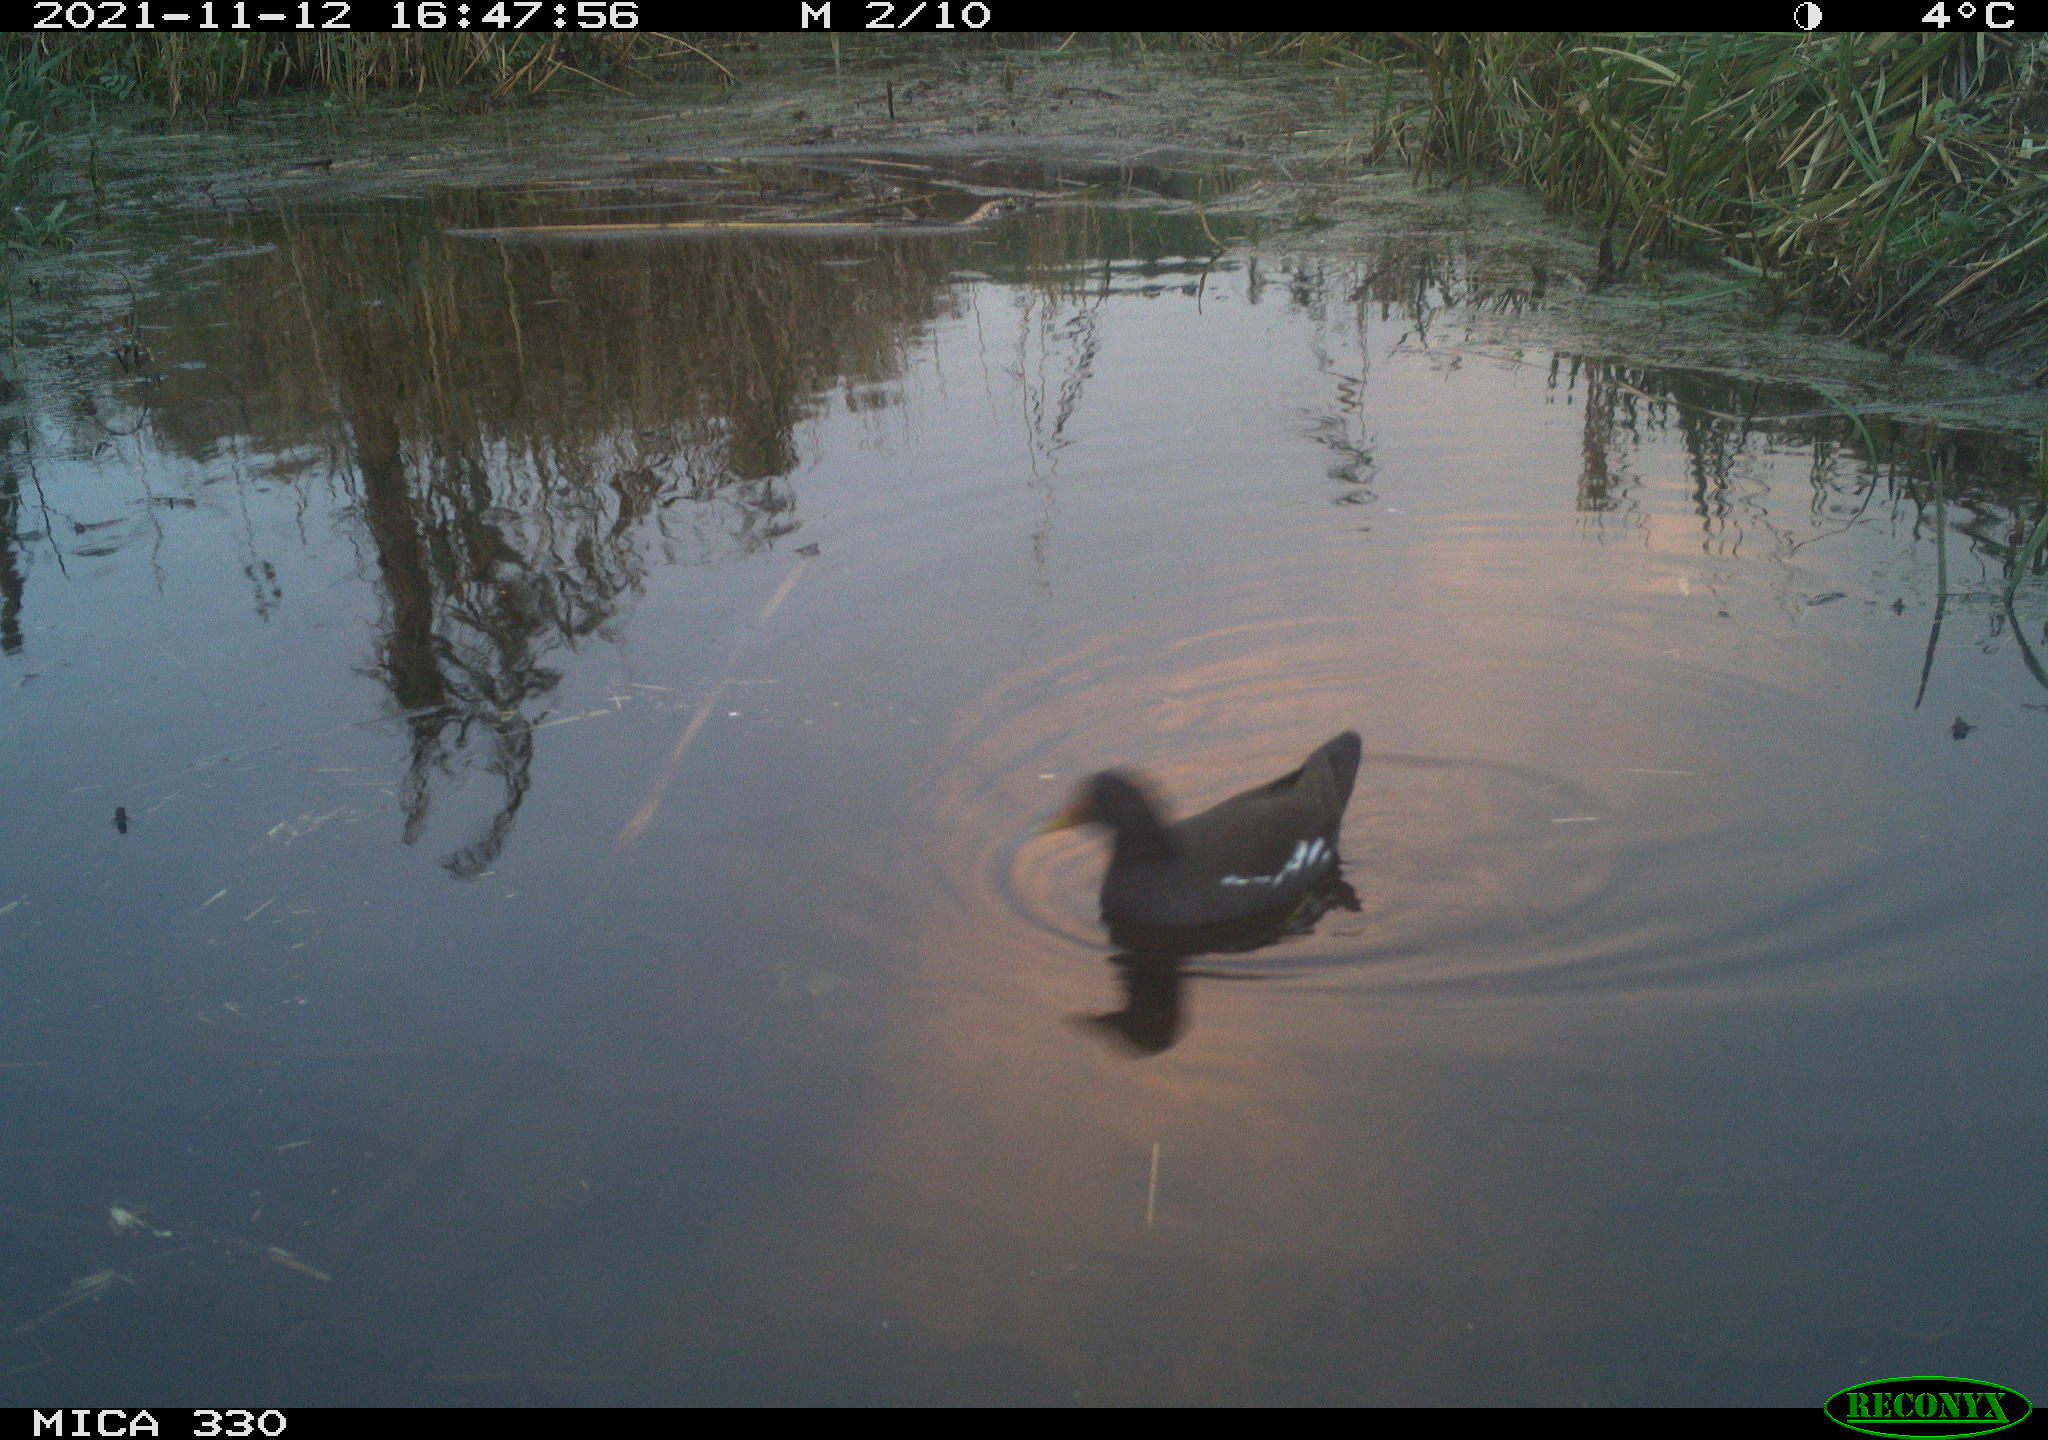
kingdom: Animalia
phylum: Chordata
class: Aves
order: Gruiformes
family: Rallidae
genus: Gallinula
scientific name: Gallinula chloropus
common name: Common moorhen
